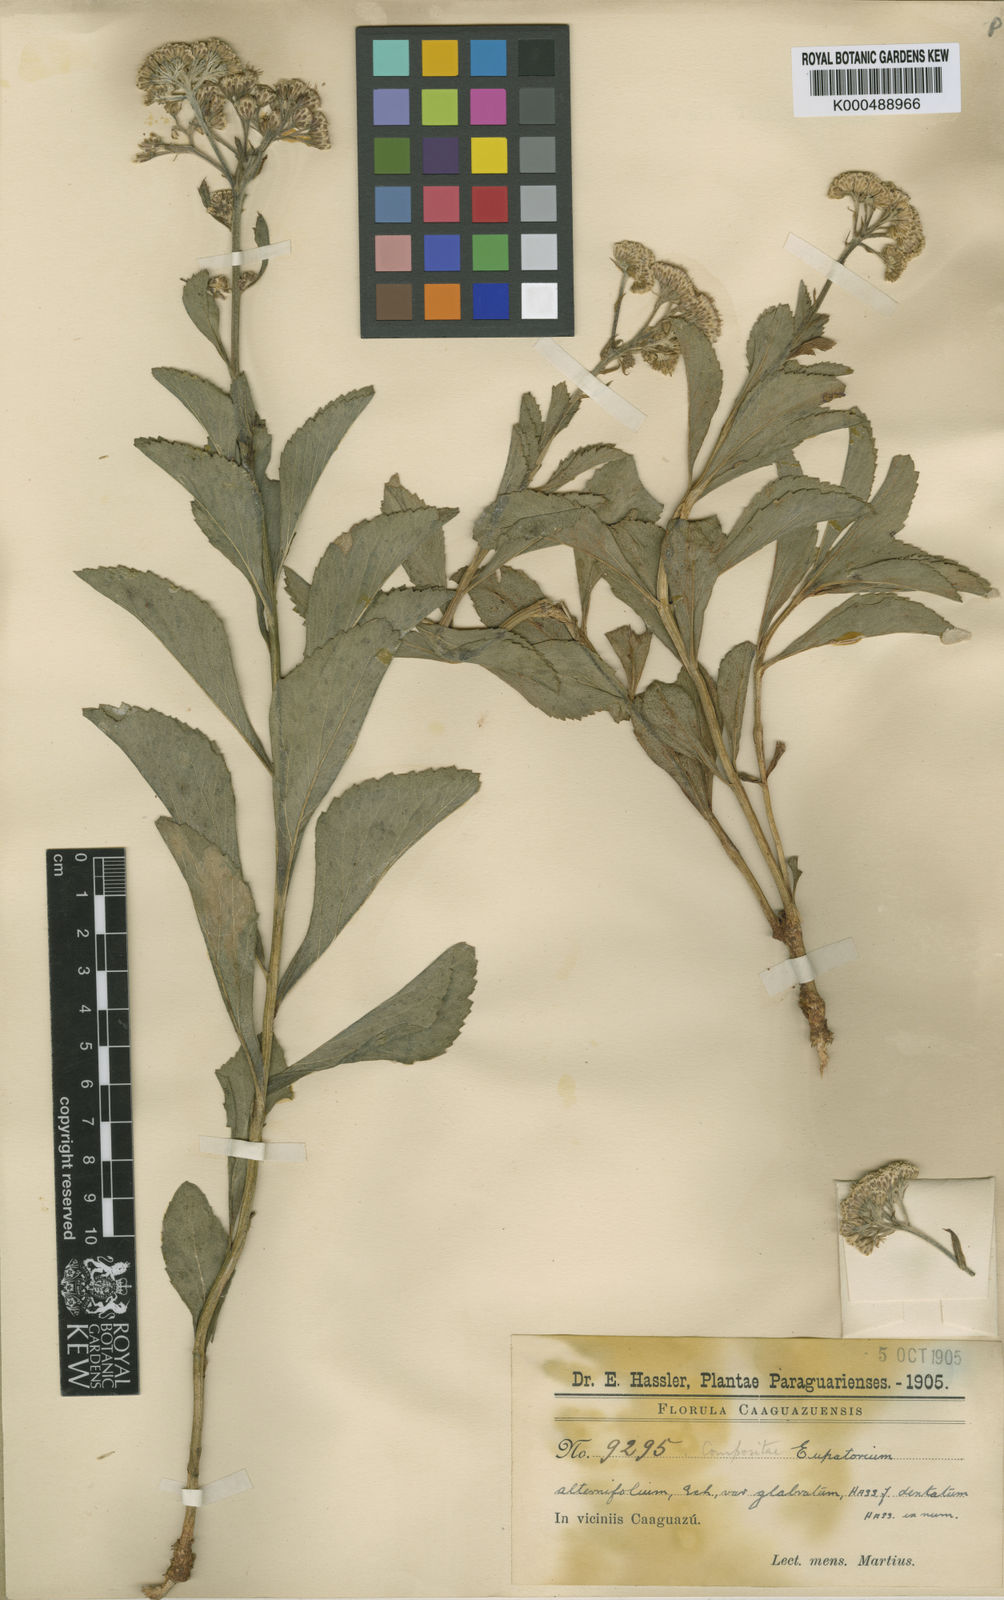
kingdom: Plantae
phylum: Tracheophyta
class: Magnoliopsida
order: Asterales
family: Asteraceae
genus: Gyptis
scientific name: Gyptis crassipes
